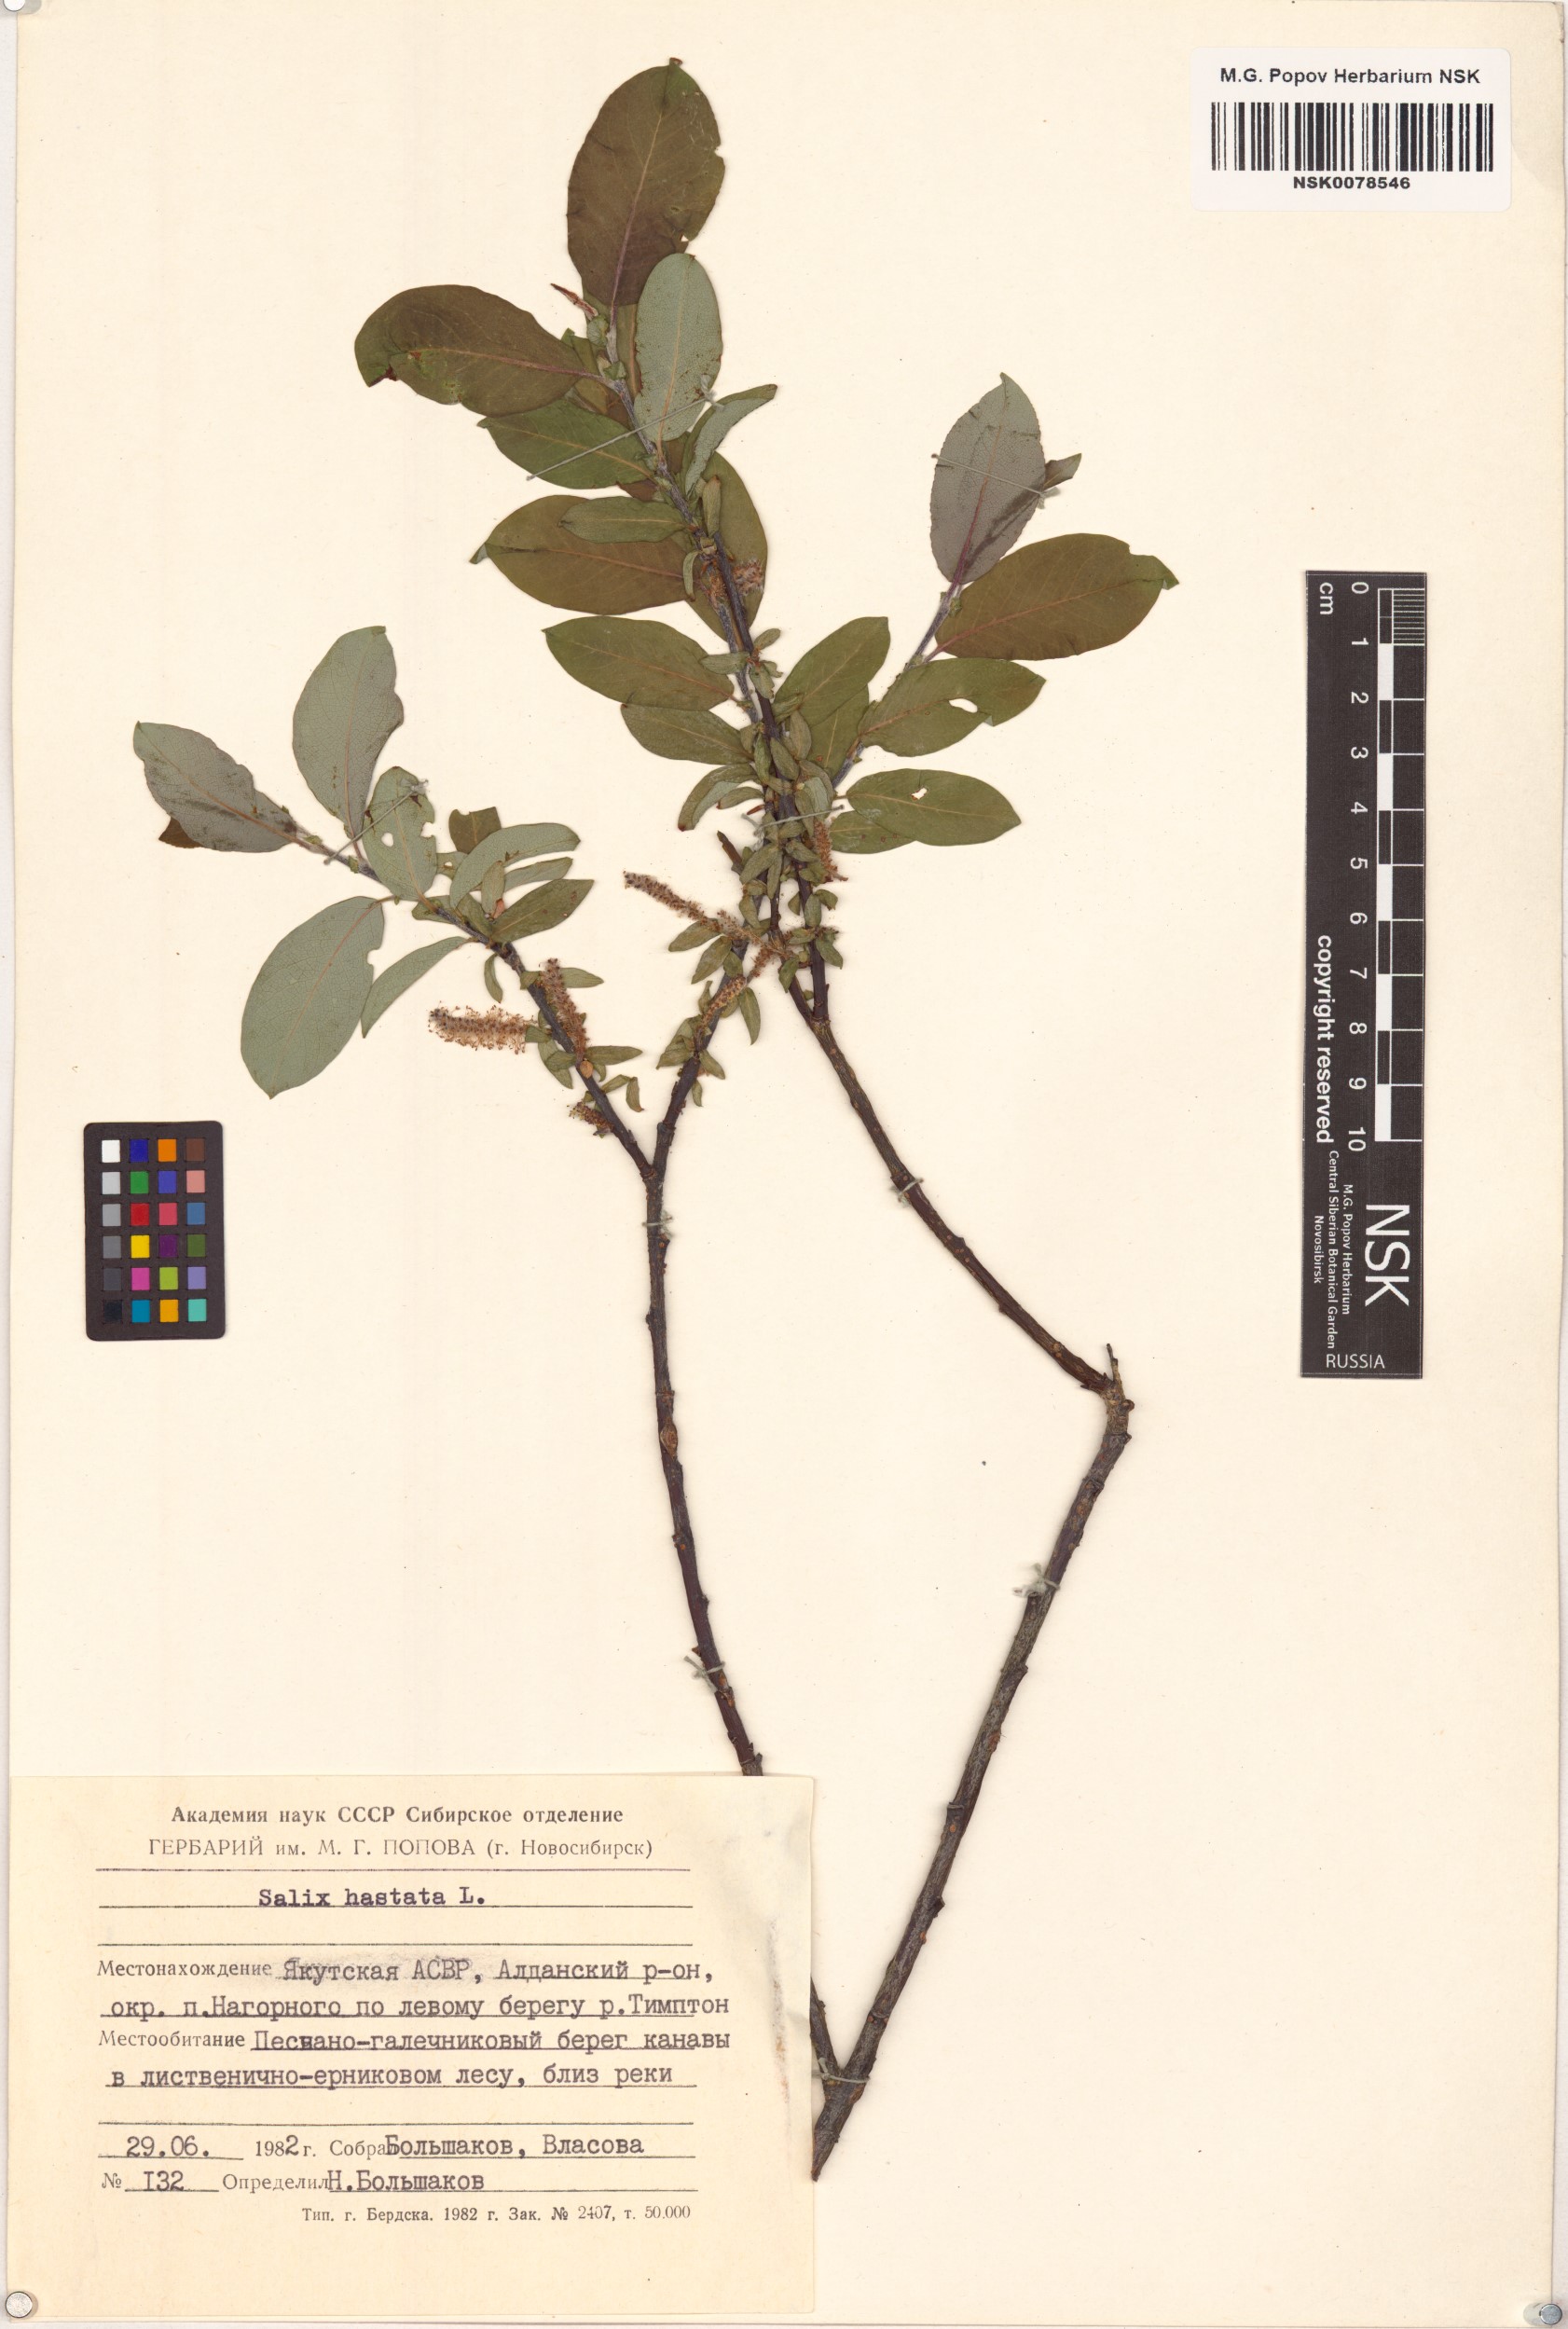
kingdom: Plantae
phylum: Tracheophyta
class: Magnoliopsida
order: Malpighiales
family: Salicaceae
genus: Salix
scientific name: Salix hastata
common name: Halberd willow
